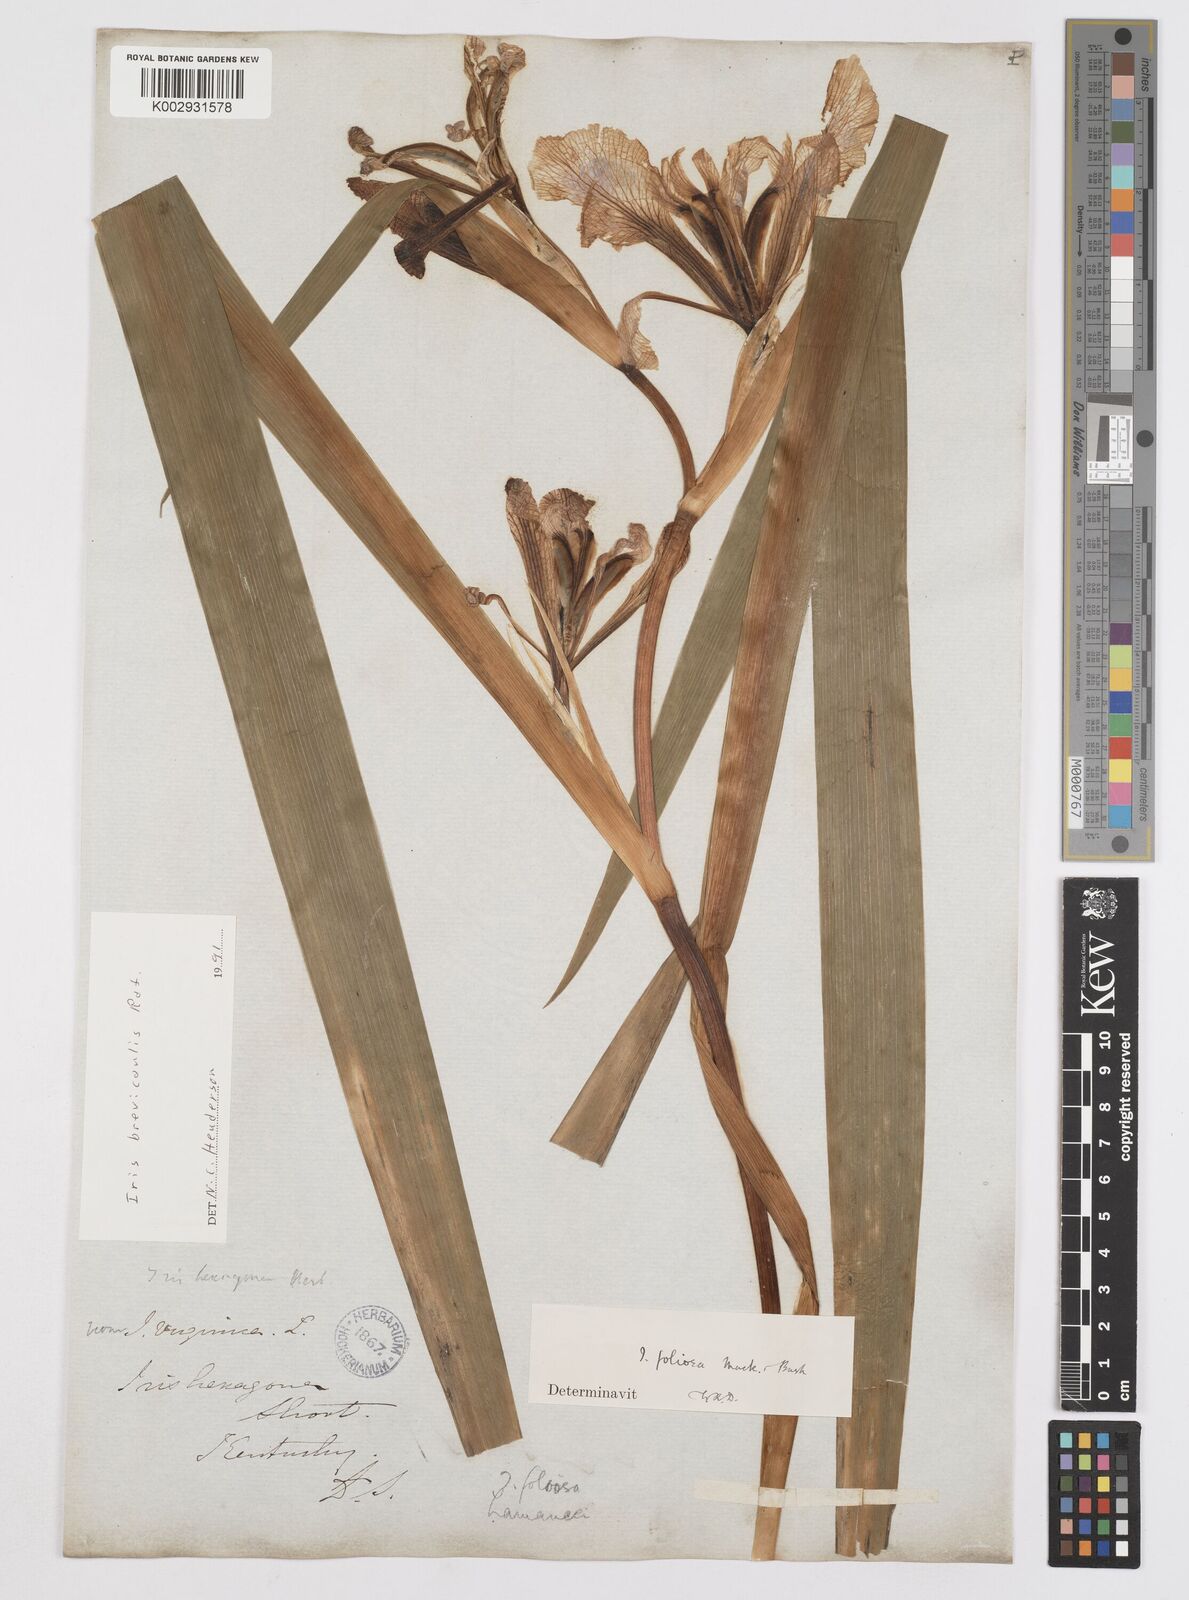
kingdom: Plantae
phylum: Tracheophyta
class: Liliopsida
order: Asparagales
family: Iridaceae
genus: Iris
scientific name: Iris brevicaulis
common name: Zigzag iris
